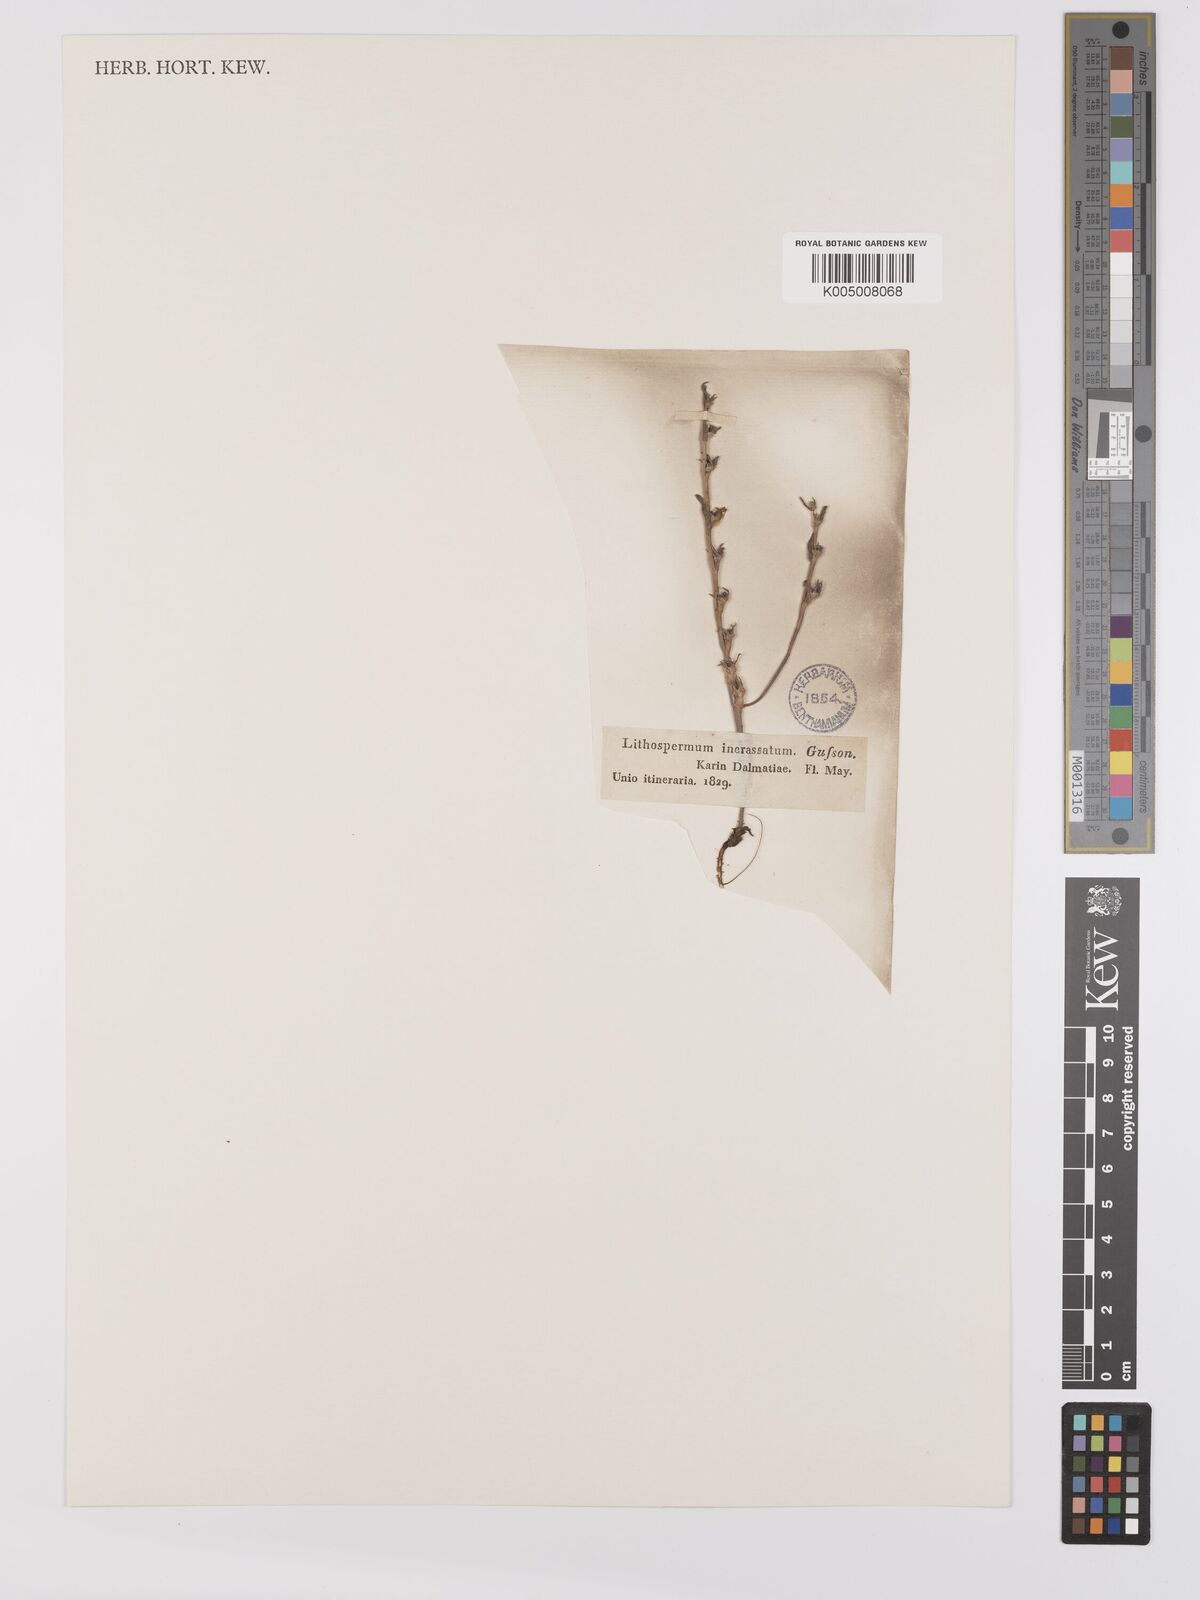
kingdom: Plantae
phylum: Tracheophyta
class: Magnoliopsida
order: Boraginales
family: Boraginaceae
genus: Buglossoides
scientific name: Buglossoides incrassata
